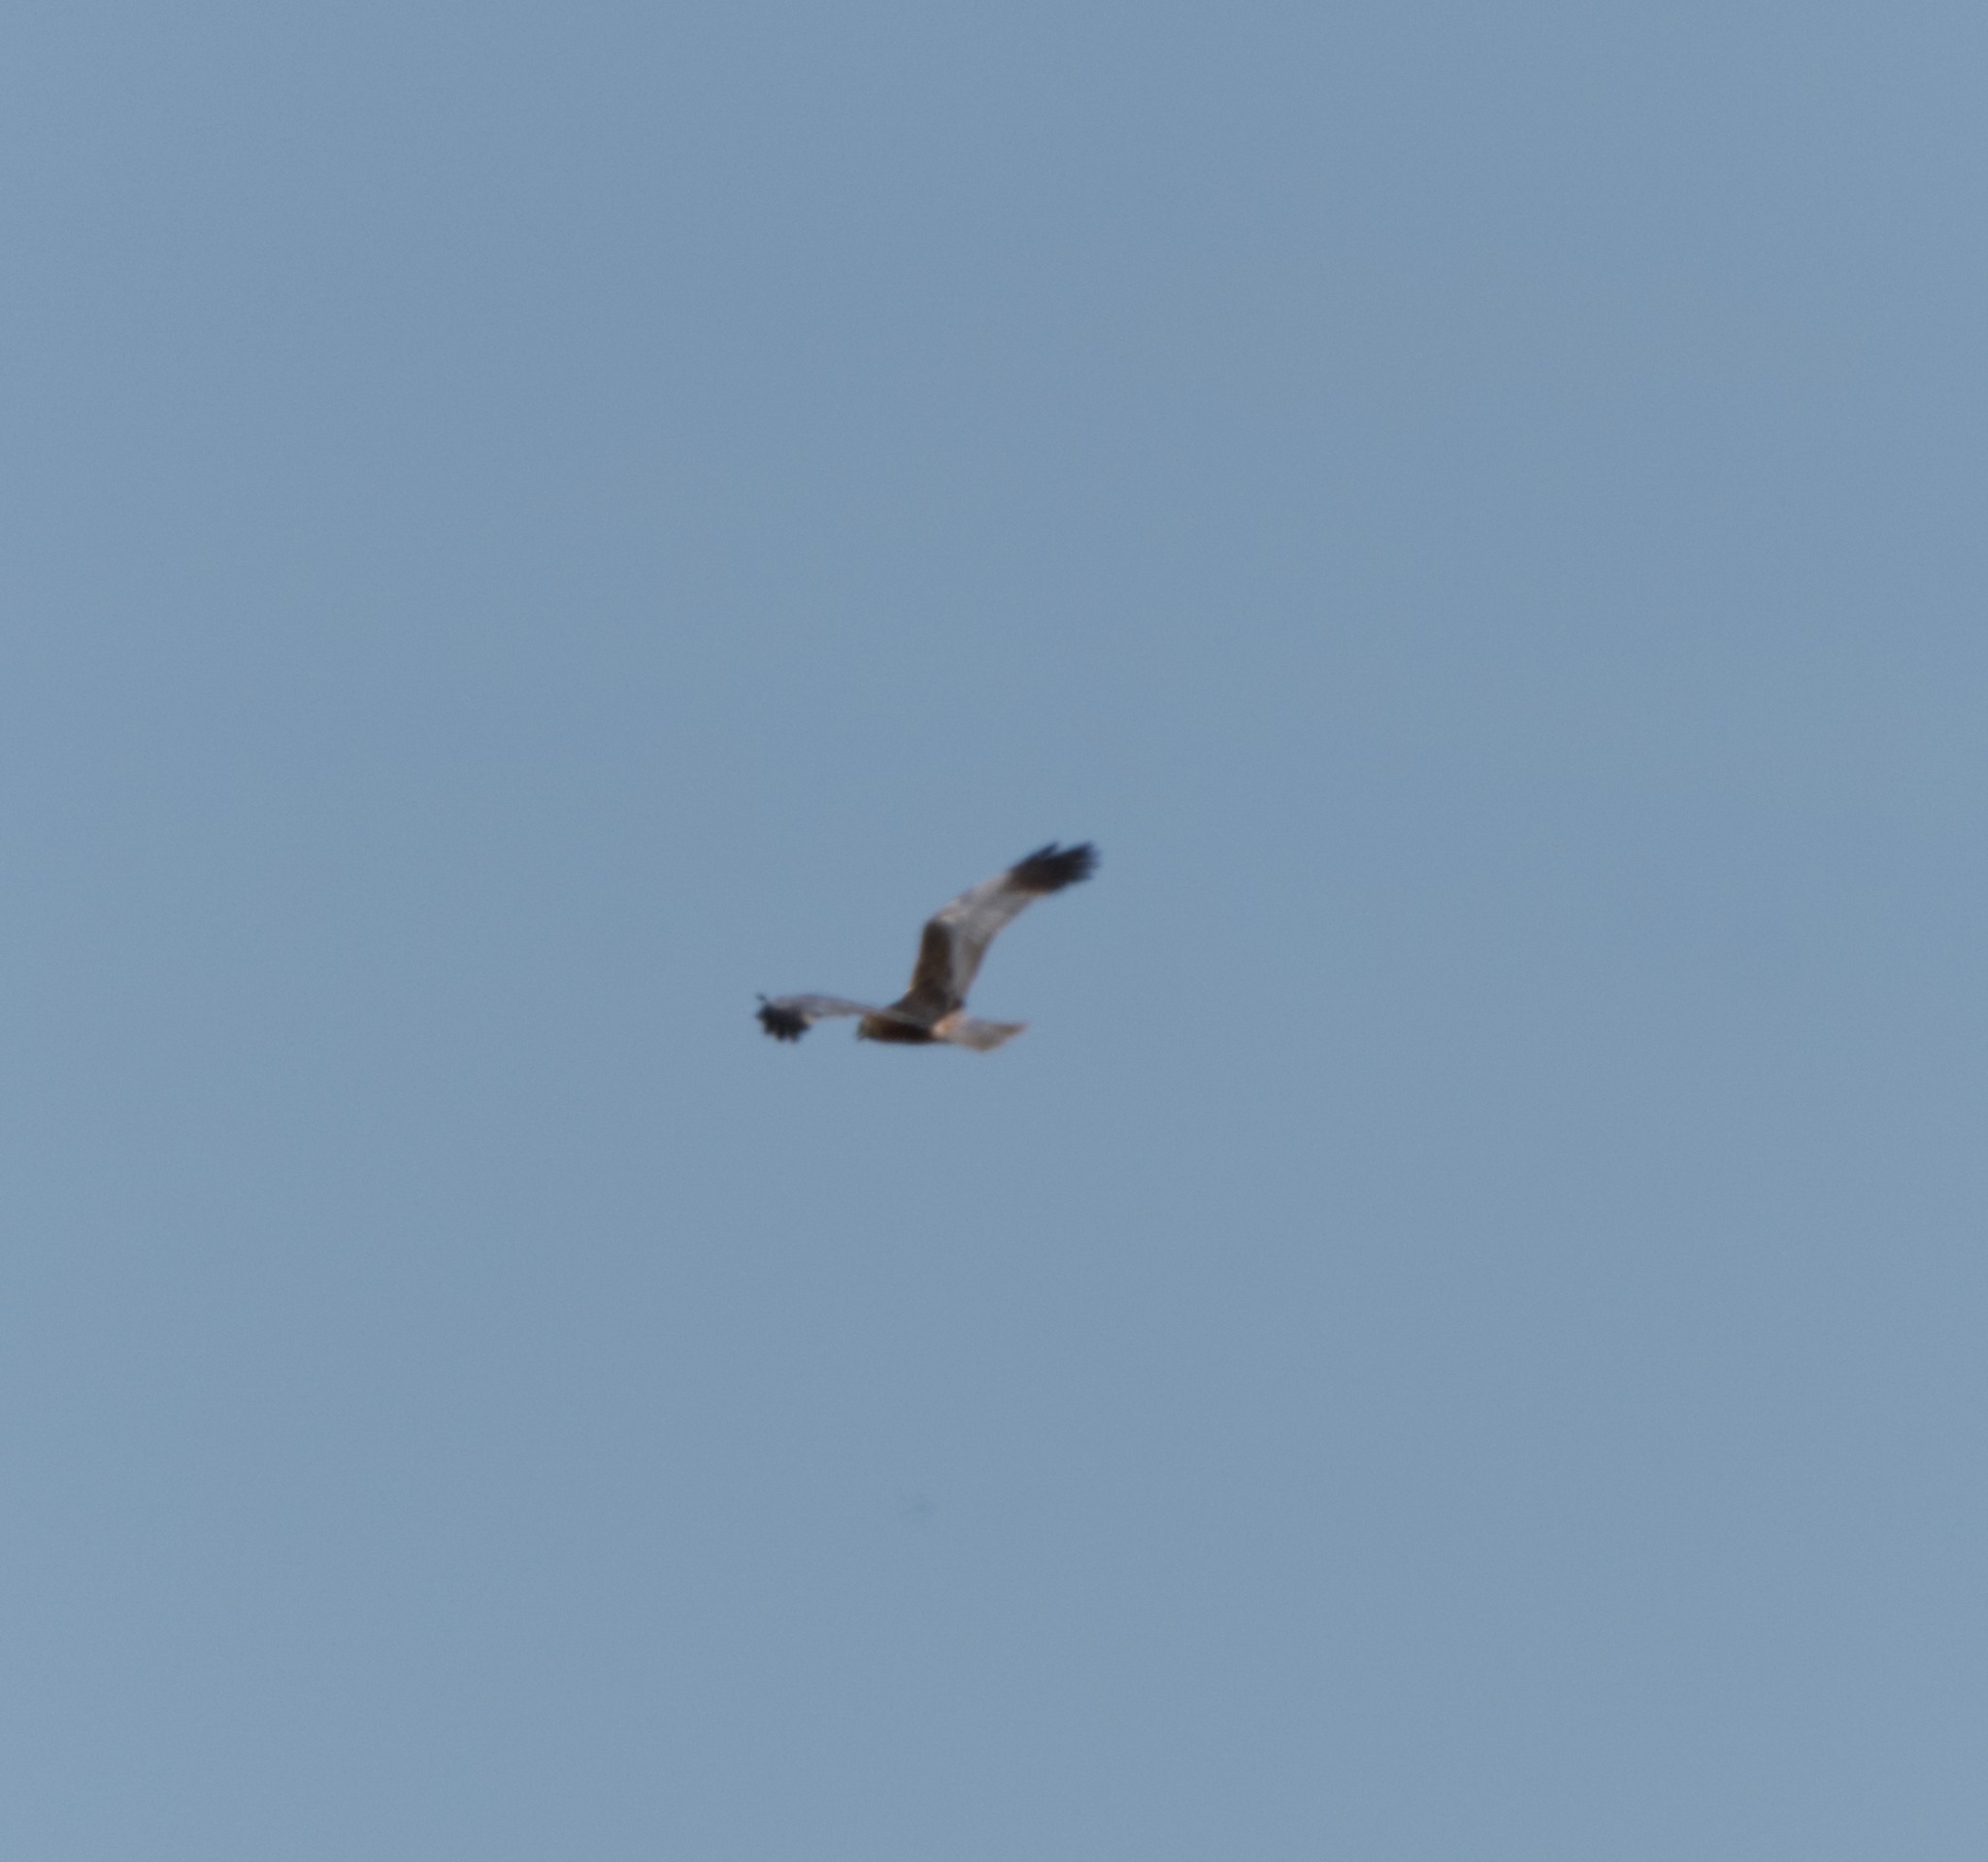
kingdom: Animalia
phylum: Chordata
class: Aves
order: Accipitriformes
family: Accipitridae
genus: Circus
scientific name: Circus aeruginosus
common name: Rørhøg
